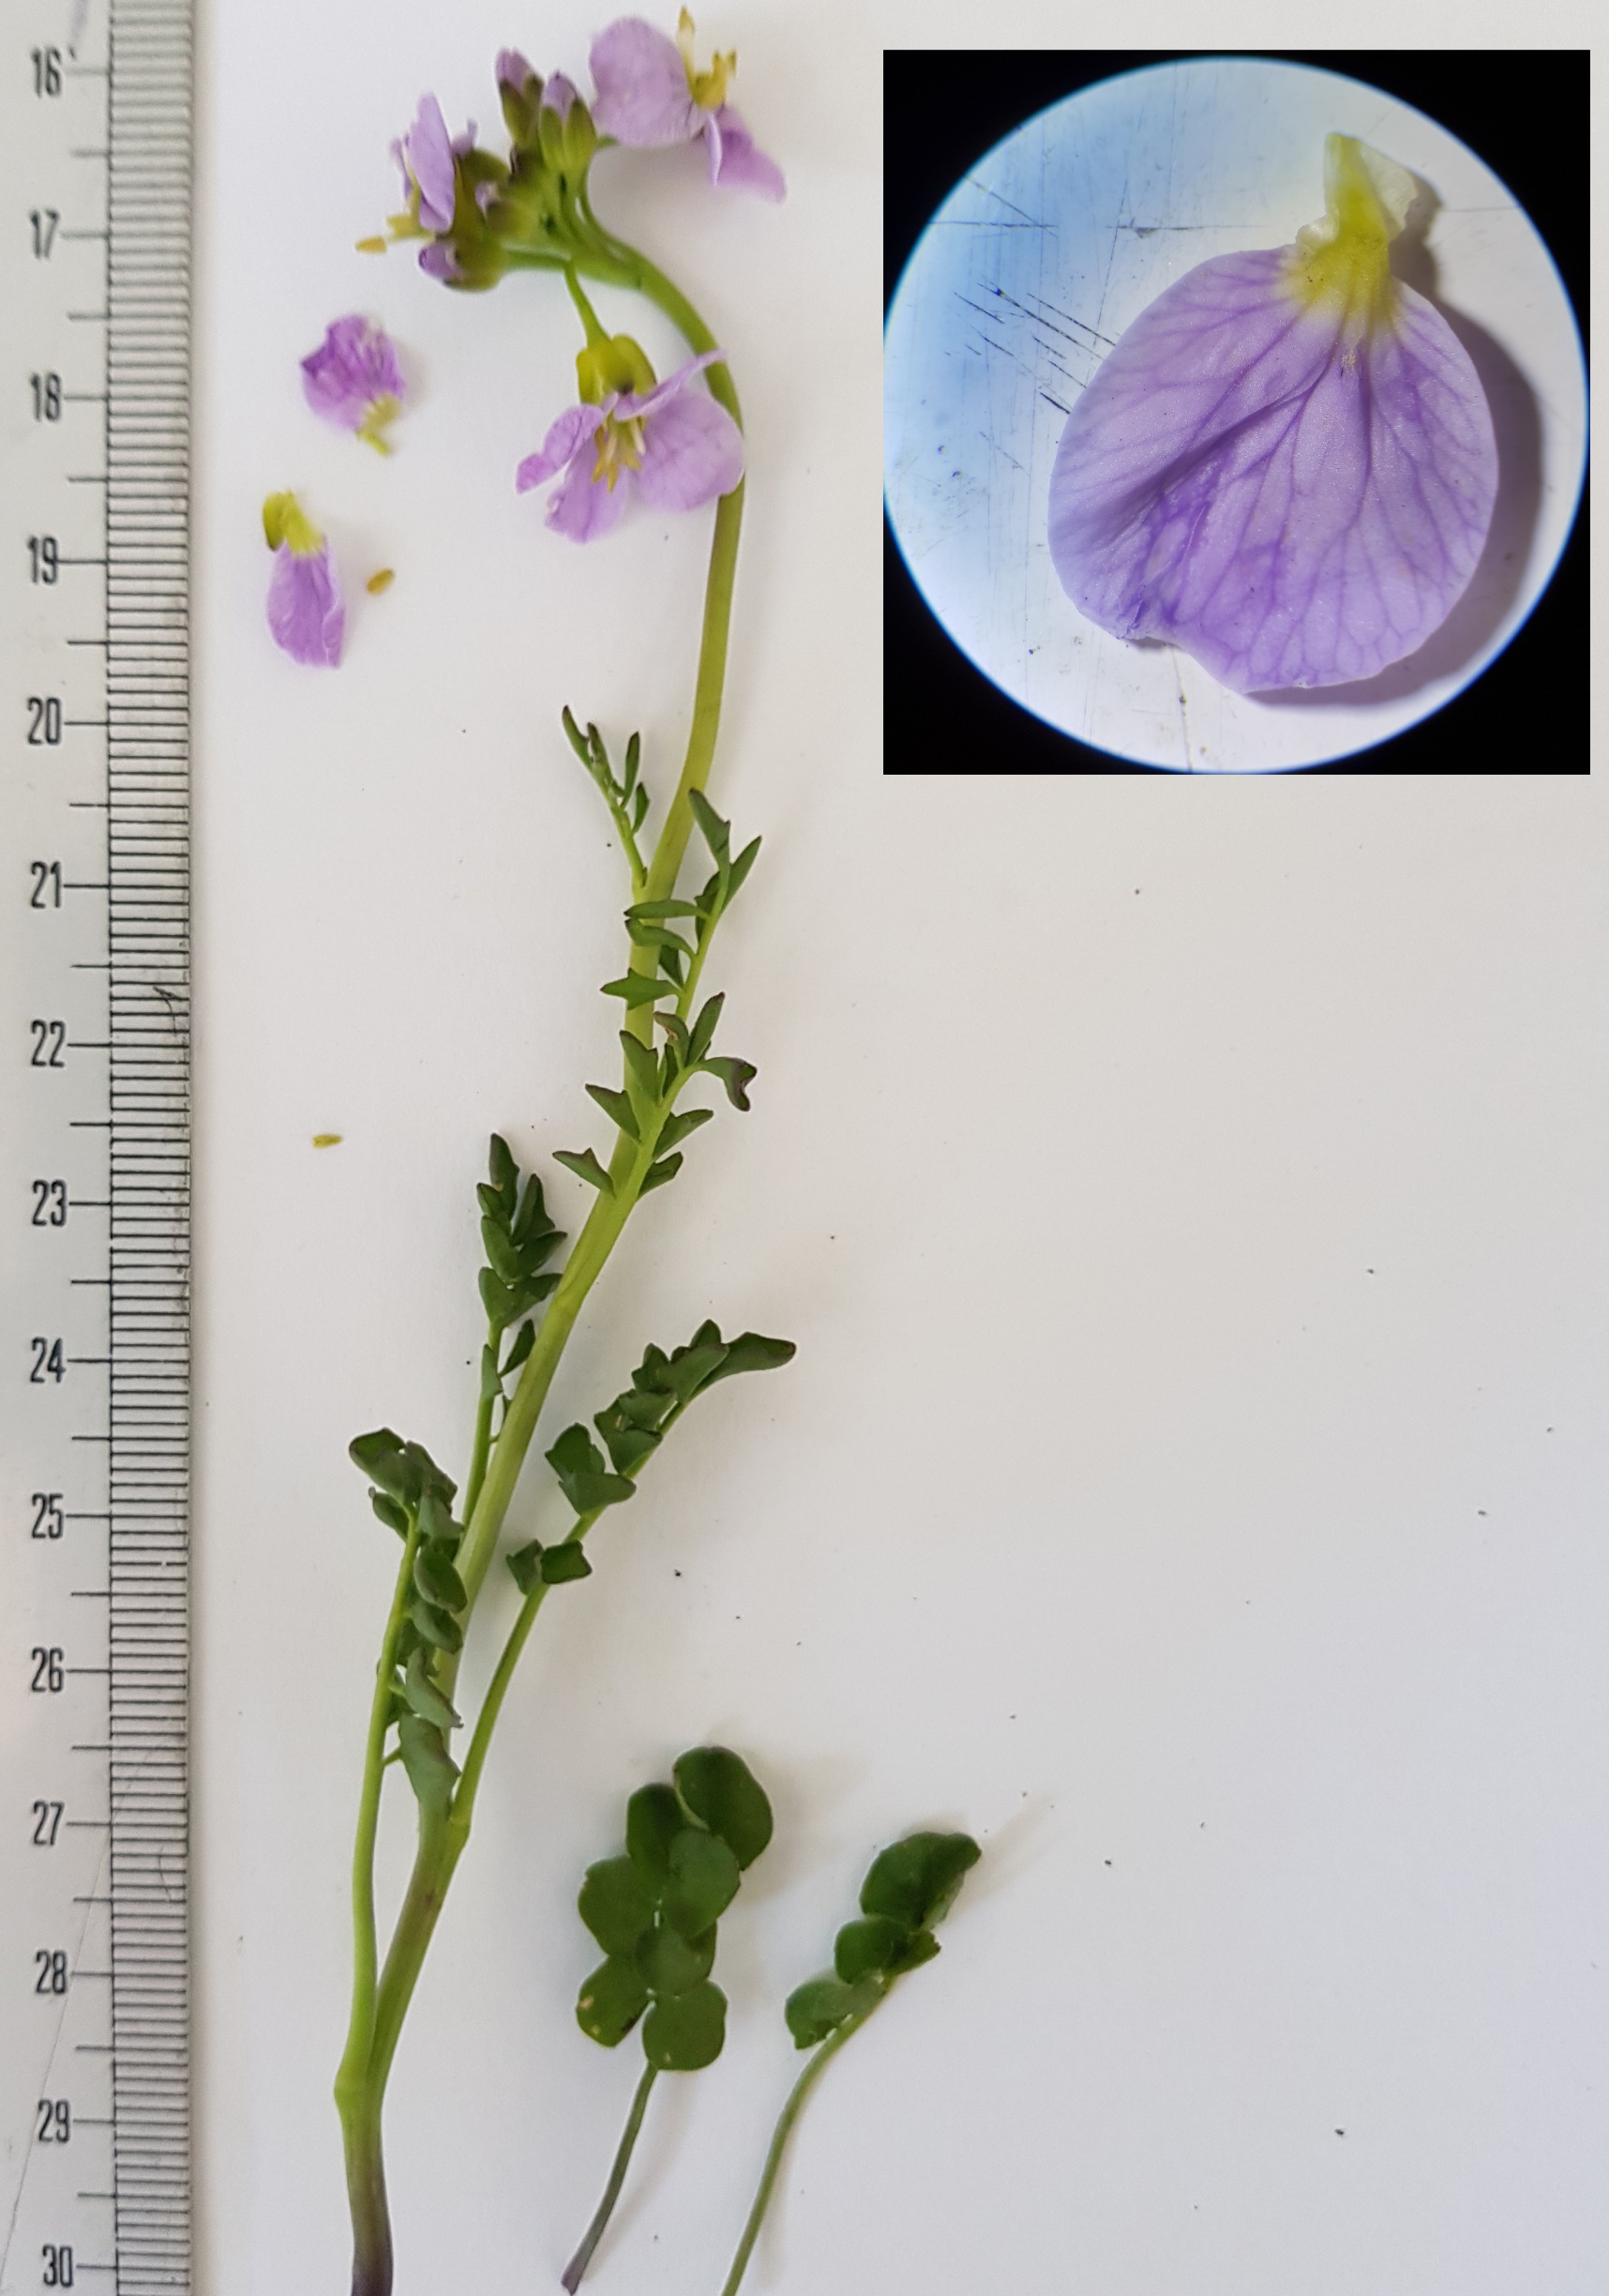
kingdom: Plantae
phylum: Tracheophyta
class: Magnoliopsida
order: Brassicales
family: Brassicaceae
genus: Cardamine
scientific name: Cardamine pratensis
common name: Almindelig engkarse
